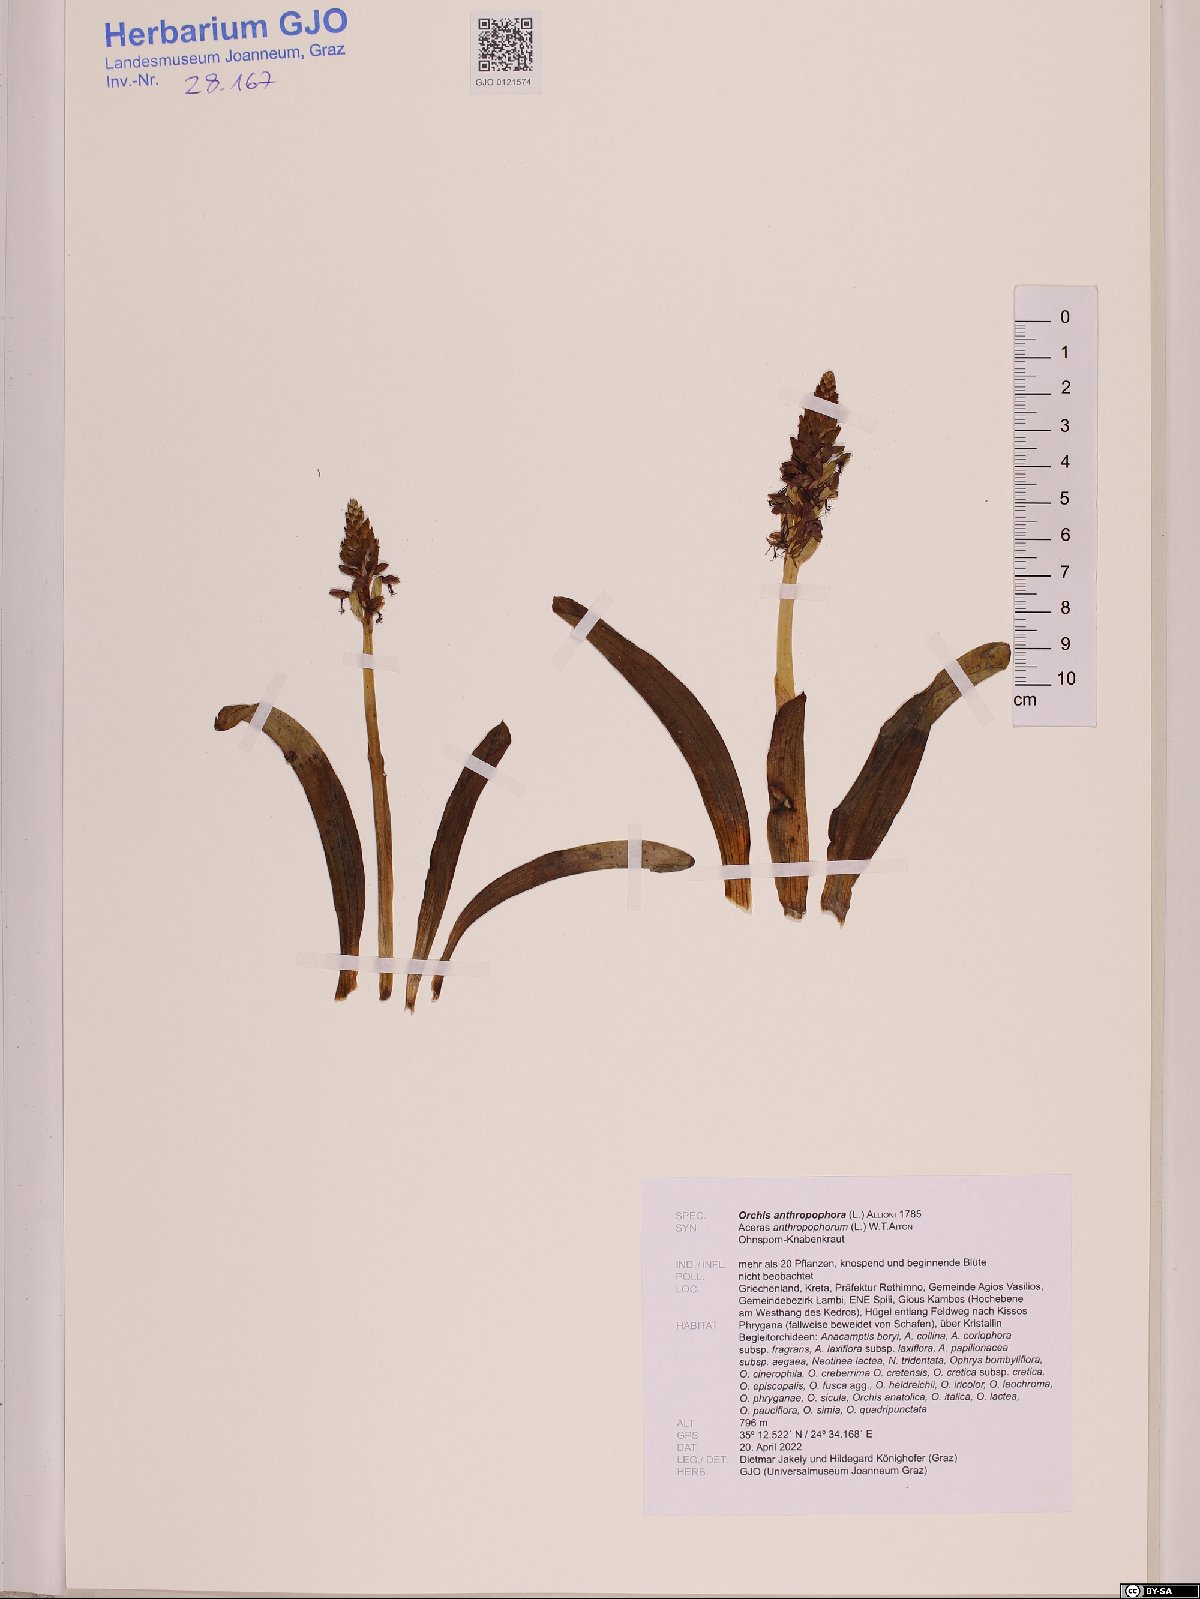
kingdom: Plantae
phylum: Tracheophyta
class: Liliopsida
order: Asparagales
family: Orchidaceae
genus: Orchis
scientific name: Orchis anthropophora
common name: Man orchid
